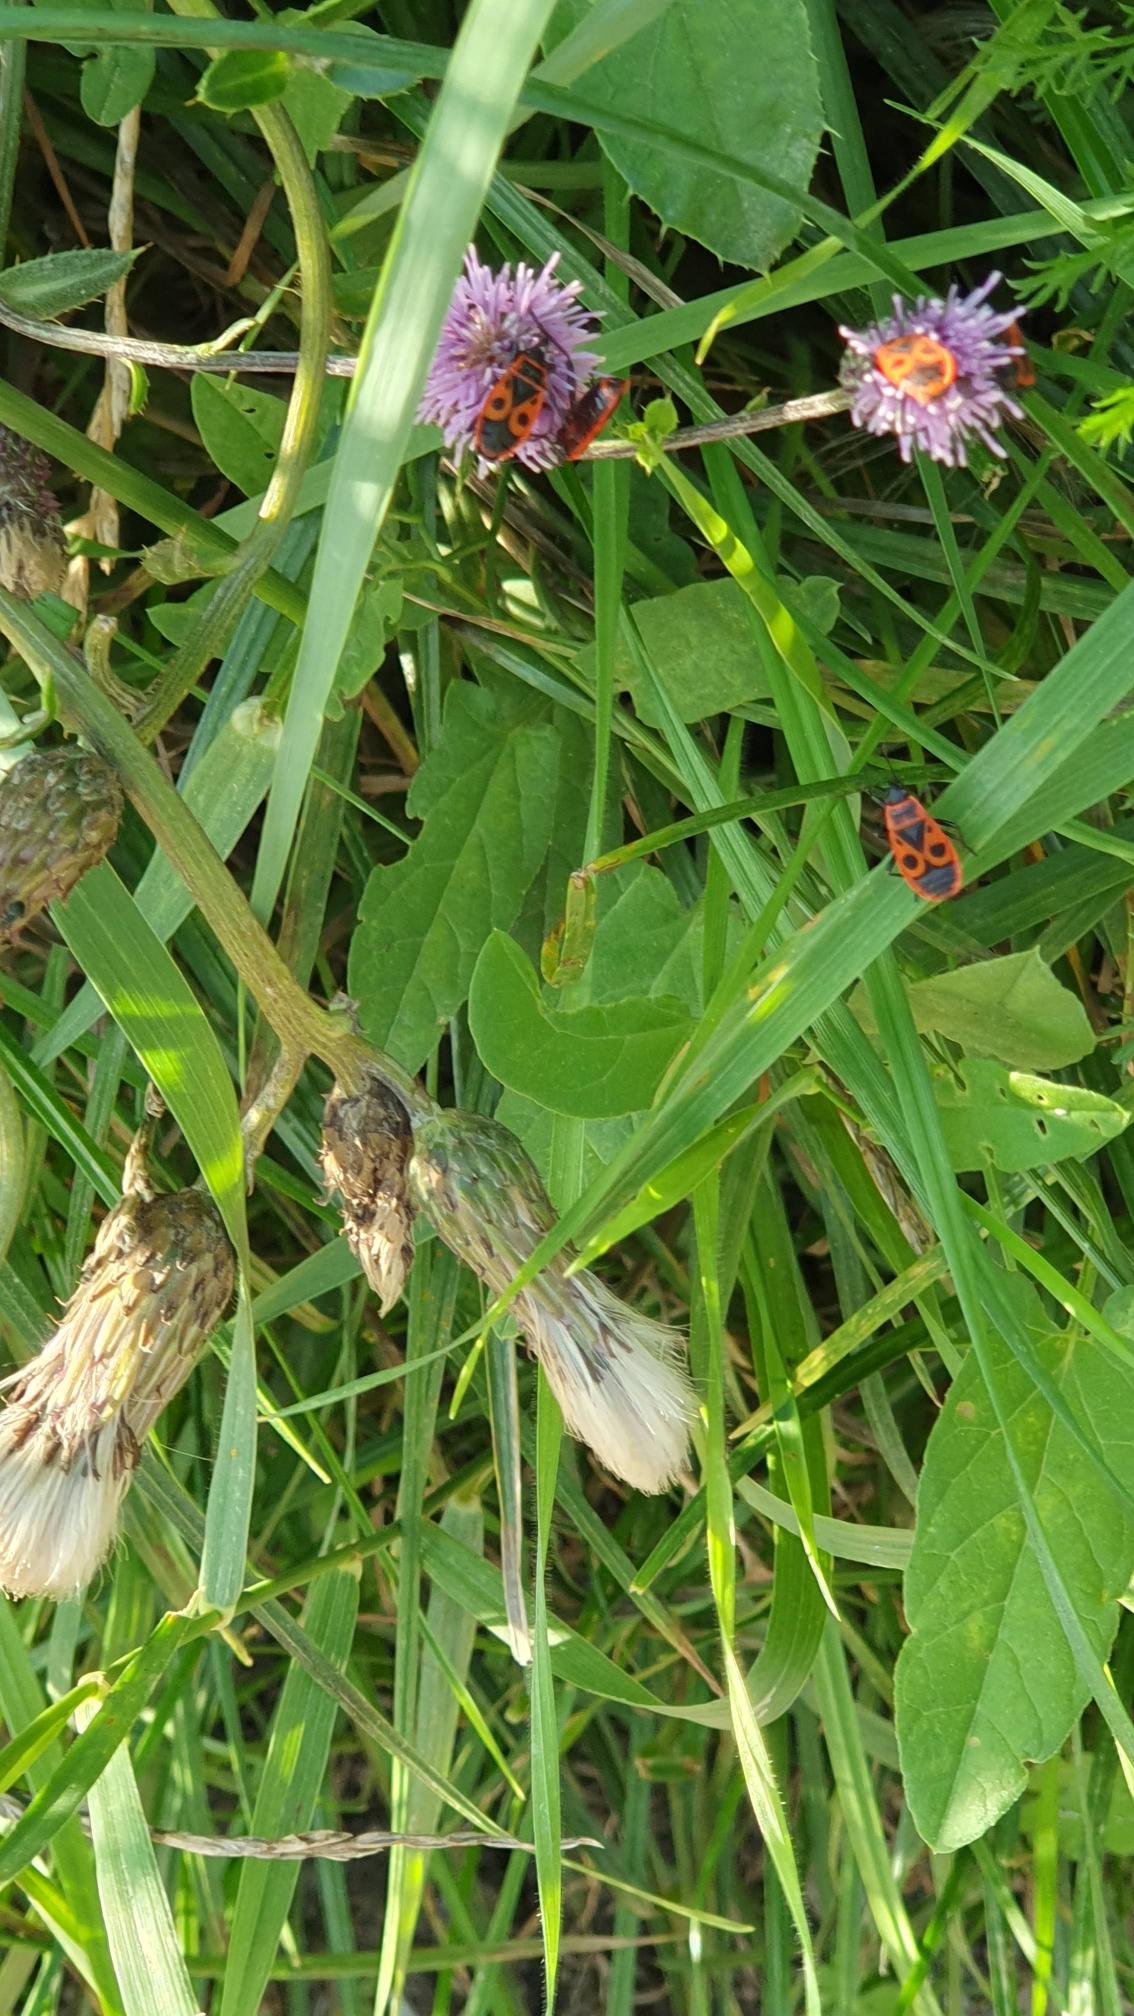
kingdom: Animalia
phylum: Arthropoda
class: Insecta
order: Hemiptera
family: Pyrrhocoridae
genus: Pyrrhocoris
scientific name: Pyrrhocoris apterus
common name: Ildtæge
